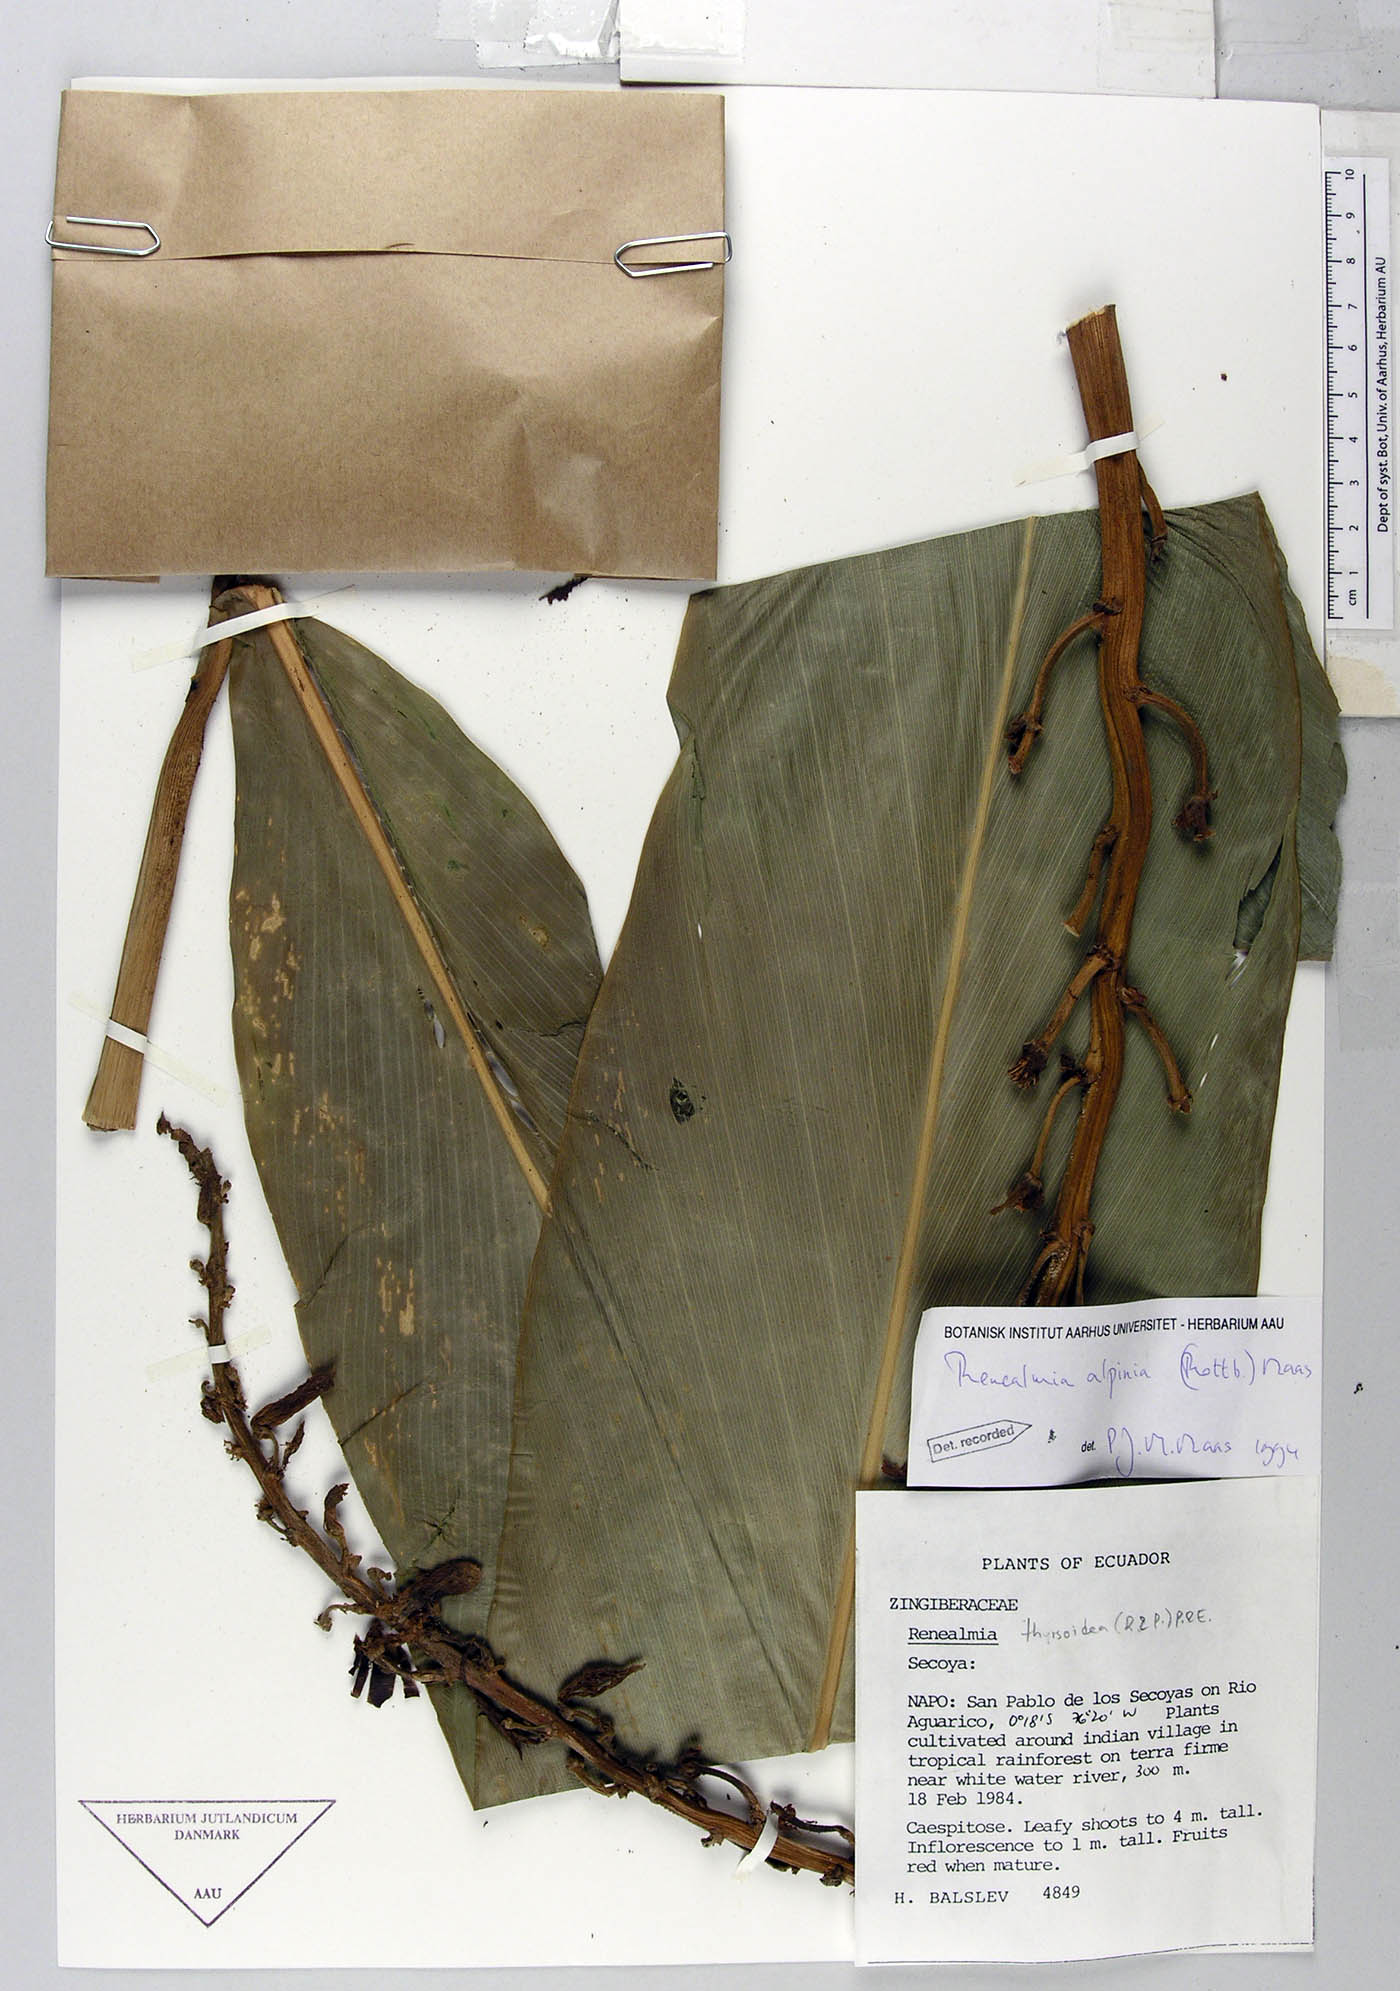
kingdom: Plantae
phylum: Tracheophyta
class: Liliopsida
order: Zingiberales
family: Zingiberaceae
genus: Renealmia
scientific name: Renealmia alpinia
